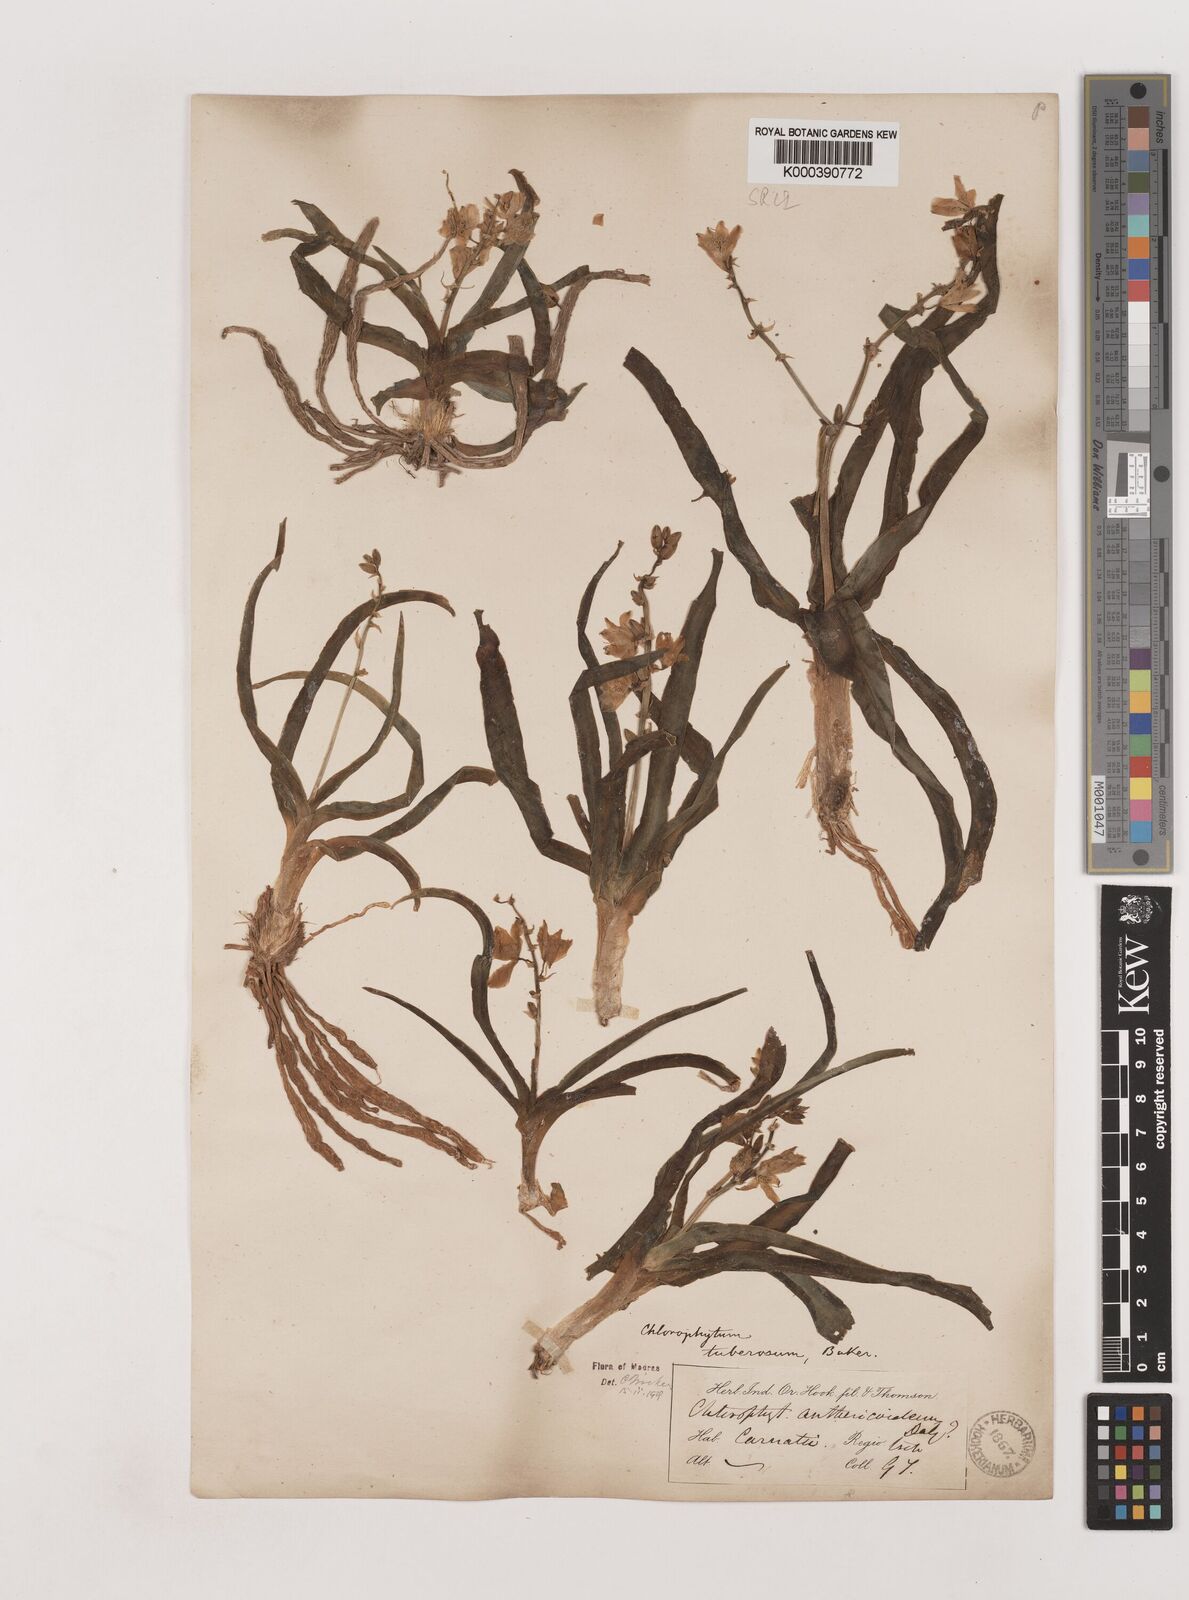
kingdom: Plantae
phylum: Tracheophyta
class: Liliopsida
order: Asparagales
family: Asparagaceae
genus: Chlorophytum
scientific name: Chlorophytum tuberosum
